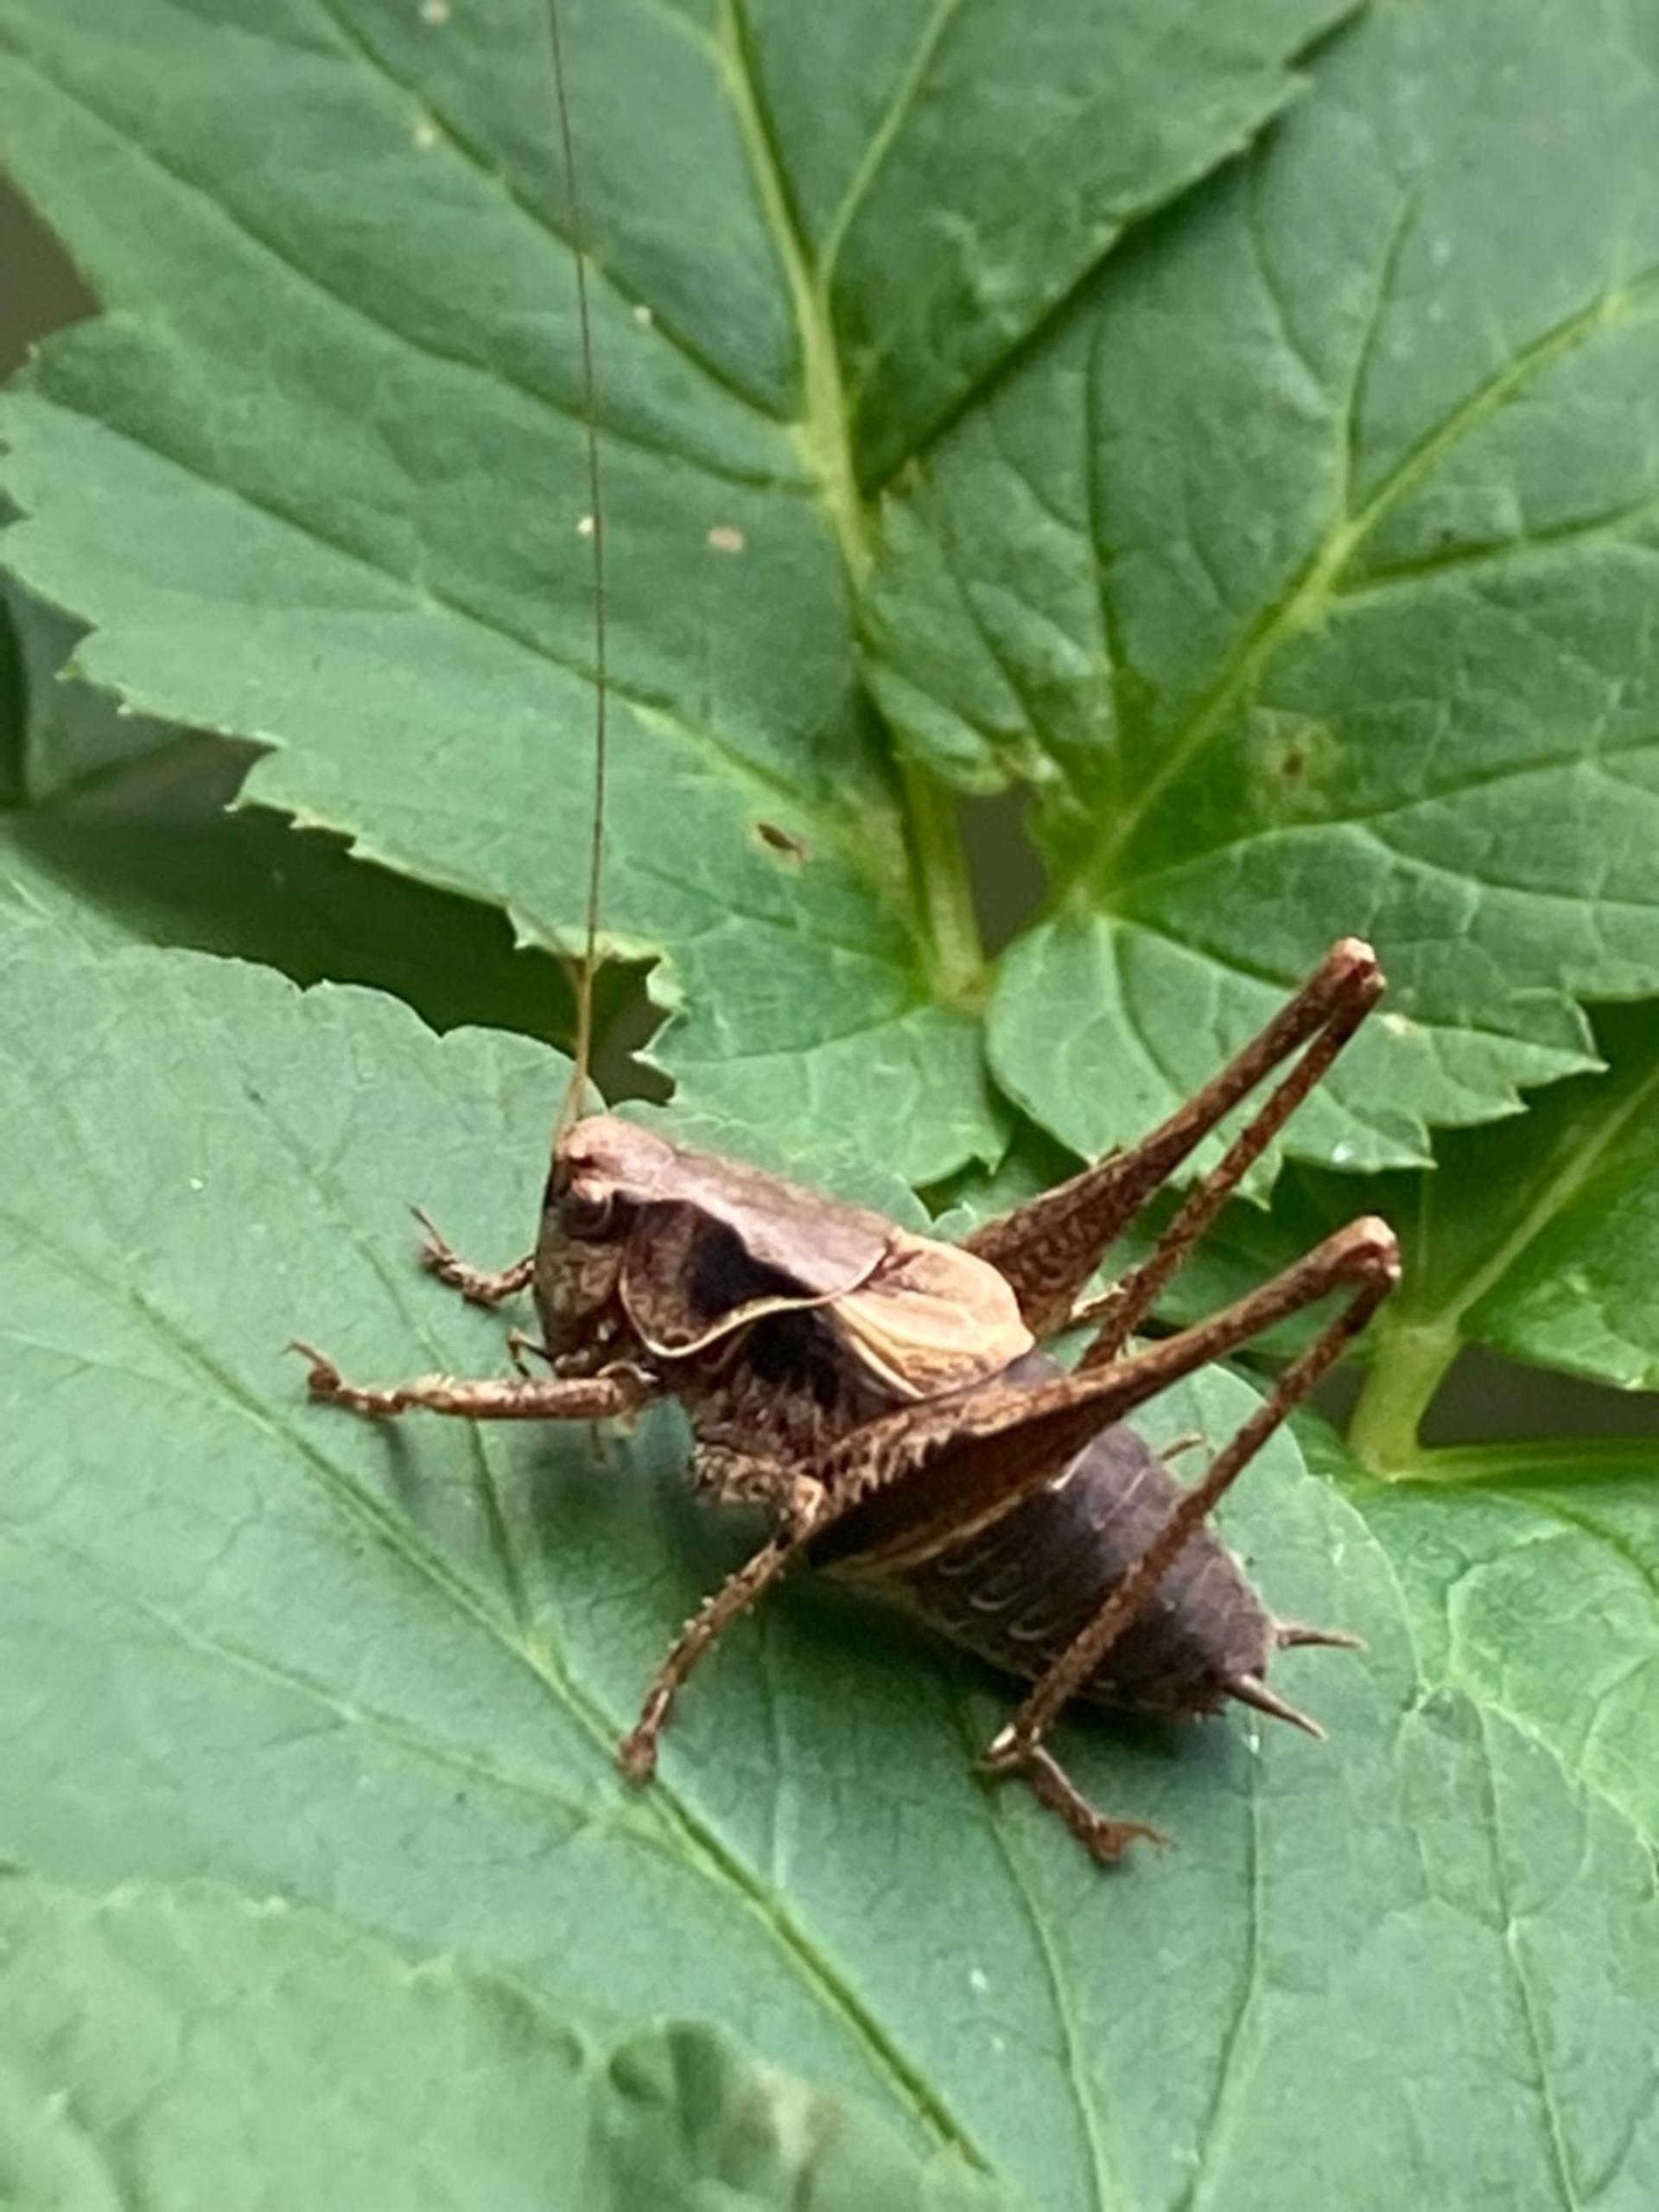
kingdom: Animalia
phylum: Arthropoda
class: Insecta
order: Orthoptera
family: Tettigoniidae
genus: Pholidoptera
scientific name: Pholidoptera griseoaptera
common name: Buskgræshoppe
